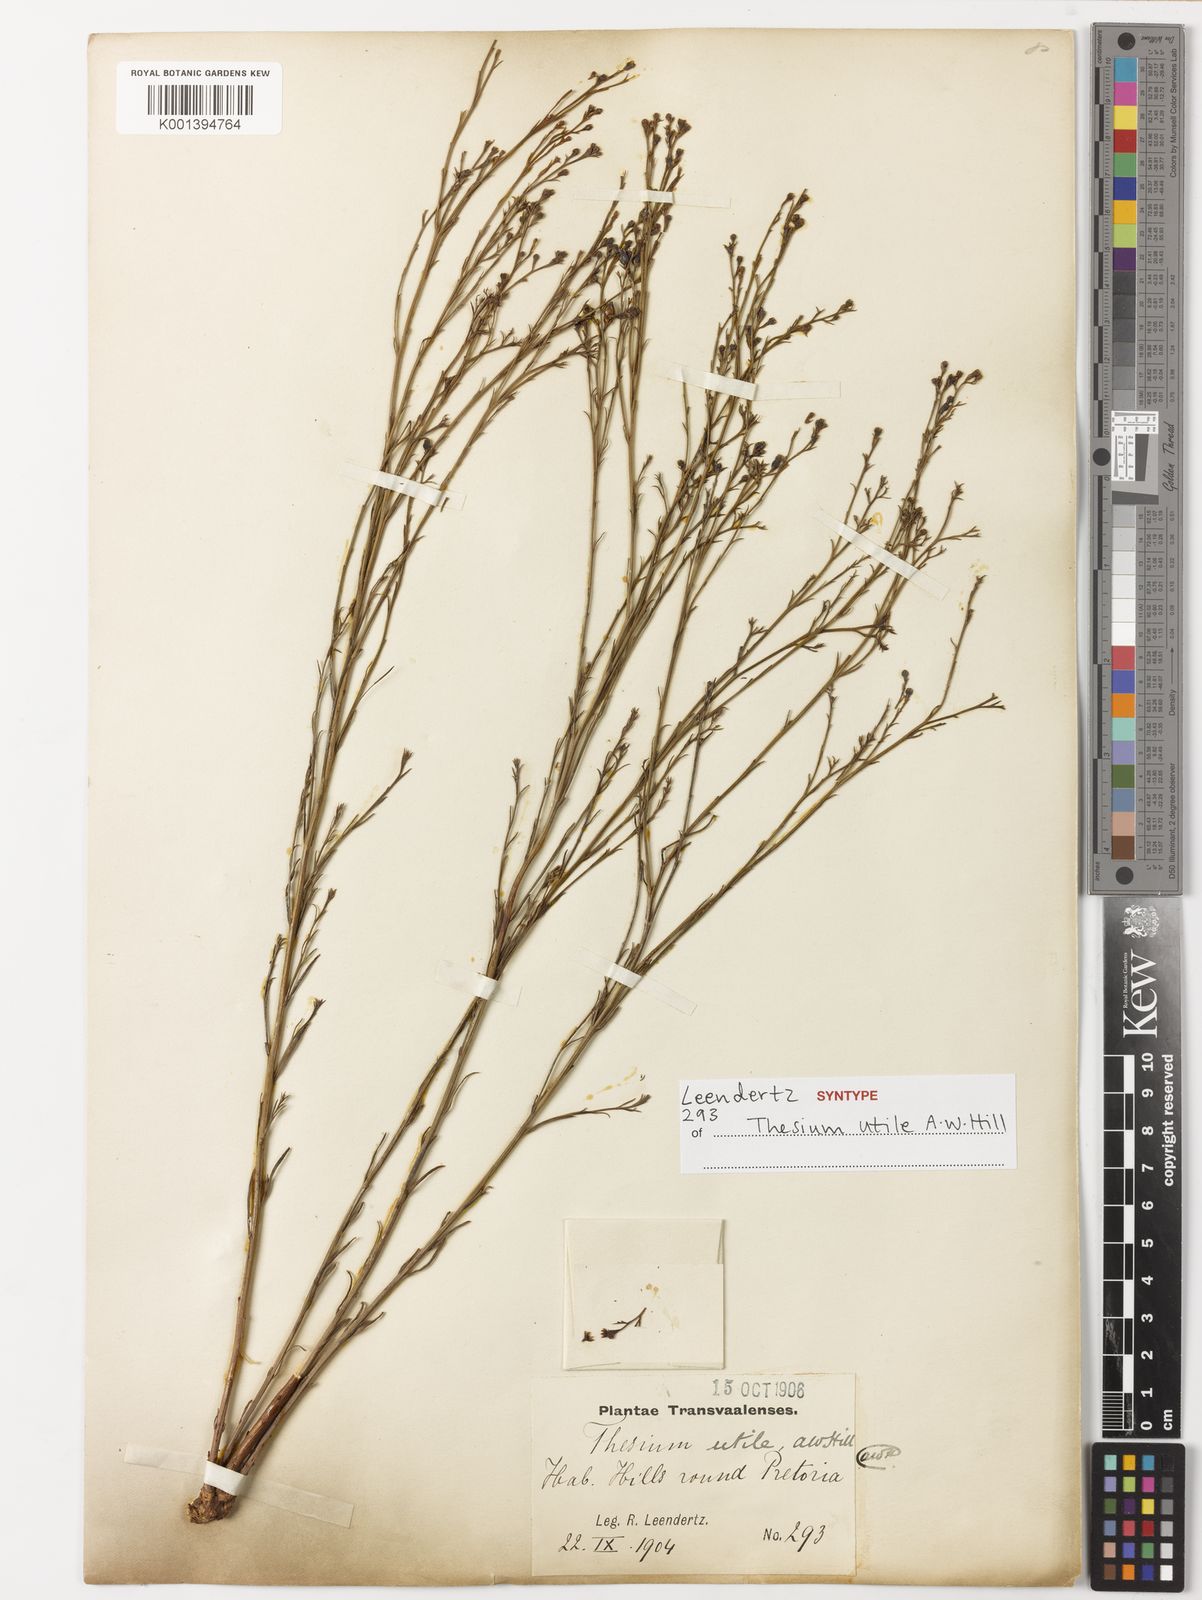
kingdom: Plantae
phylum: Tracheophyta
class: Magnoliopsida
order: Santalales
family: Thesiaceae
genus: Thesium
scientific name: Thesium utile
